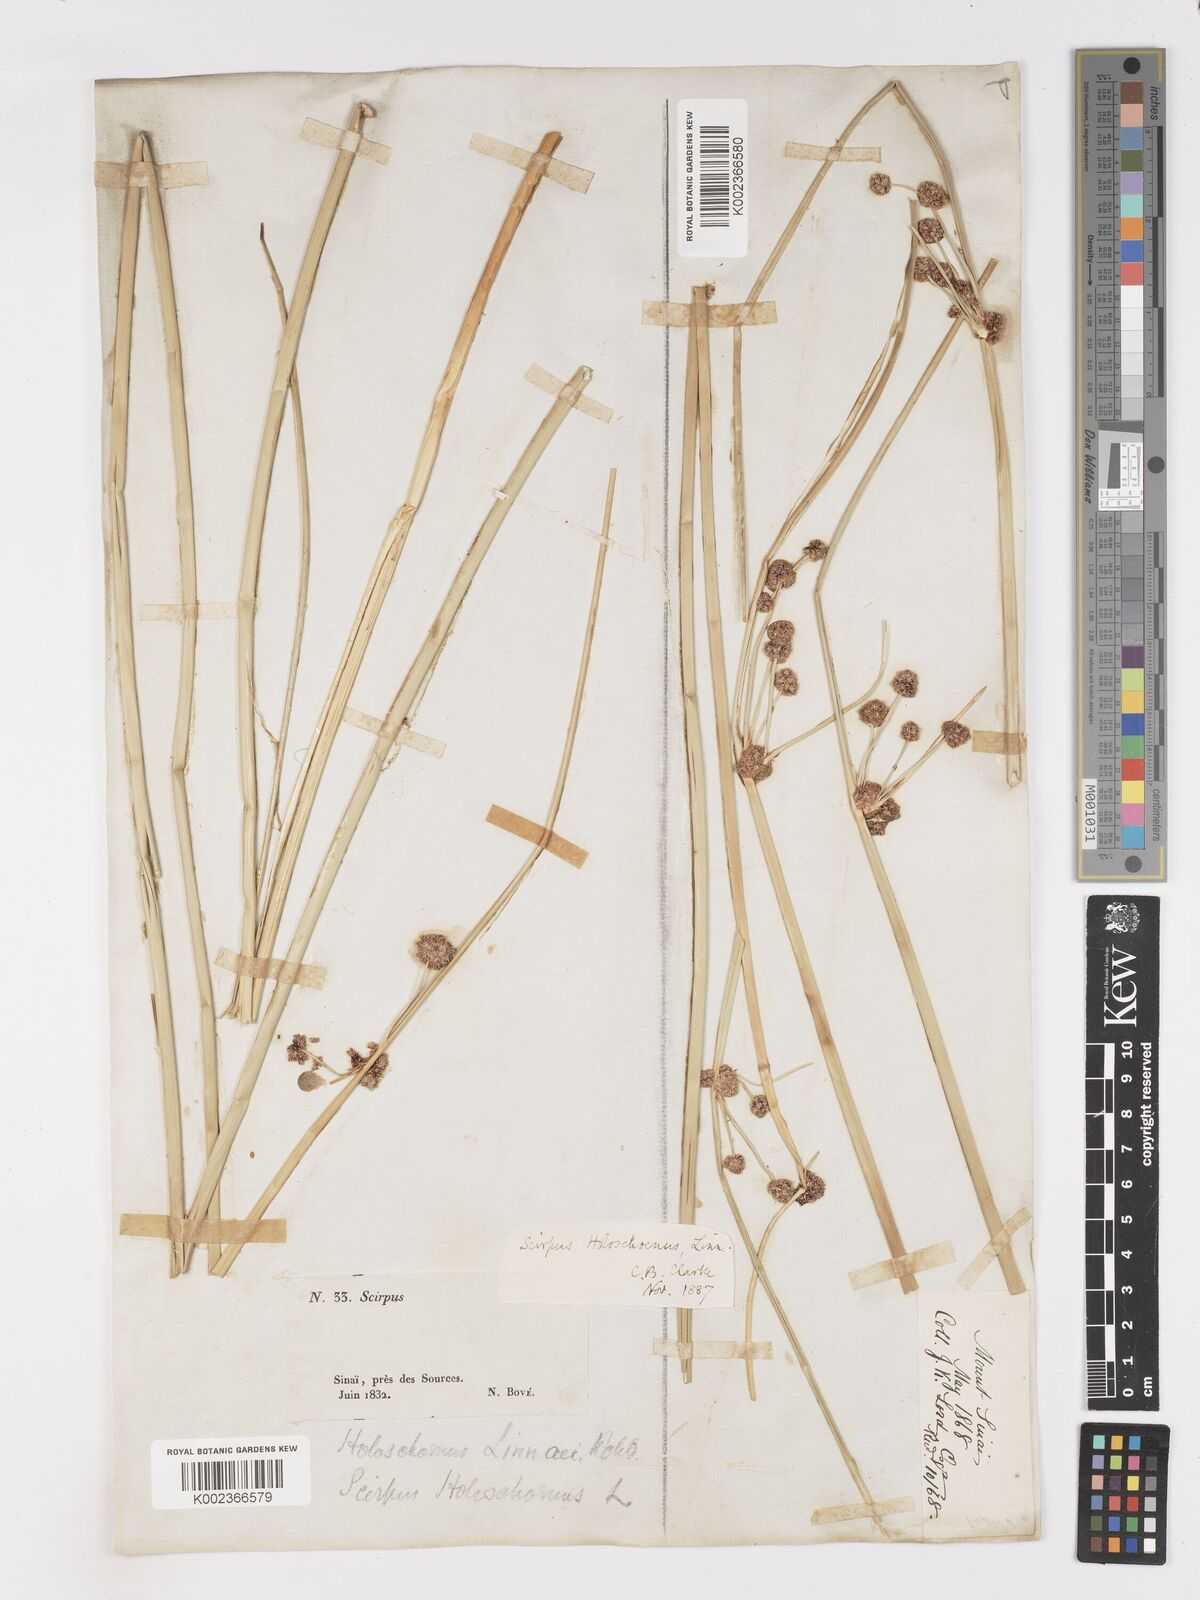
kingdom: Plantae
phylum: Tracheophyta
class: Liliopsida
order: Poales
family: Cyperaceae
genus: Scirpoides
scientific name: Scirpoides holoschoenus
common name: Round-headed club-rush
